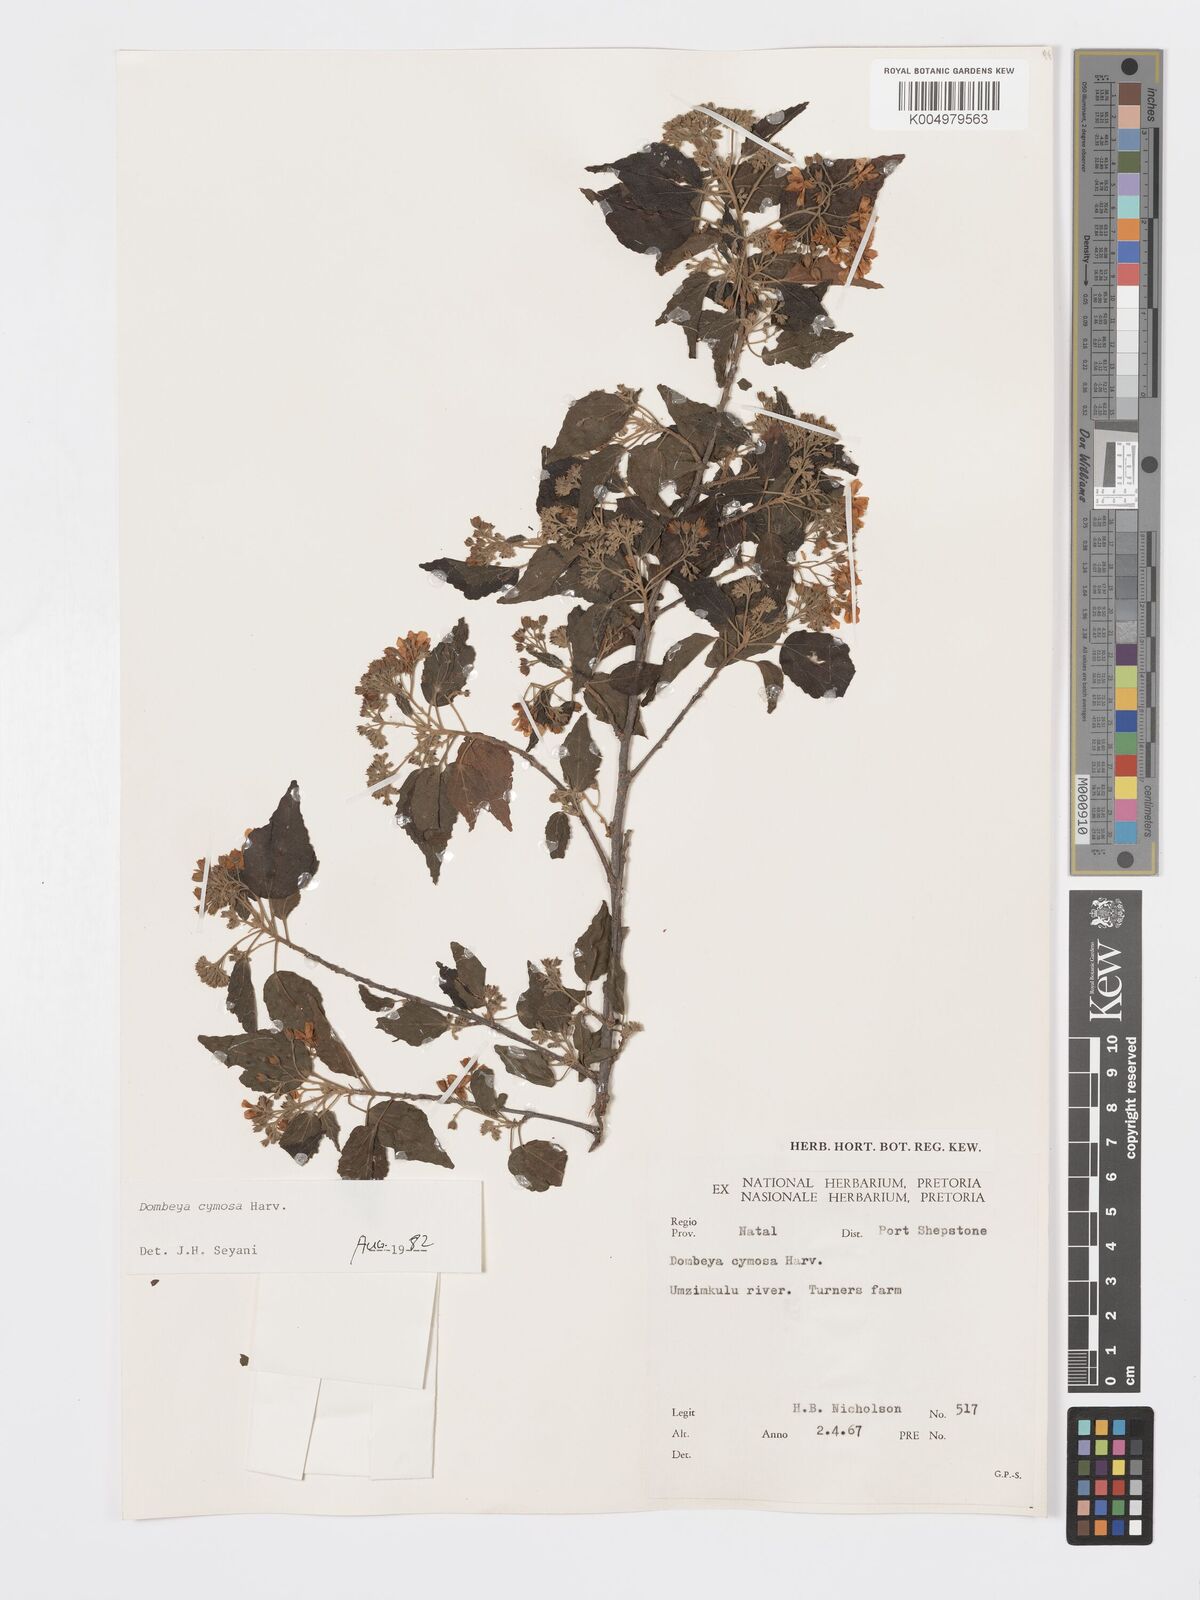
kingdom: Plantae
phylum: Tracheophyta
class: Magnoliopsida
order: Malvales
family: Malvaceae
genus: Dombeya
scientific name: Dombeya cymosa
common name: Hairless dombeya
